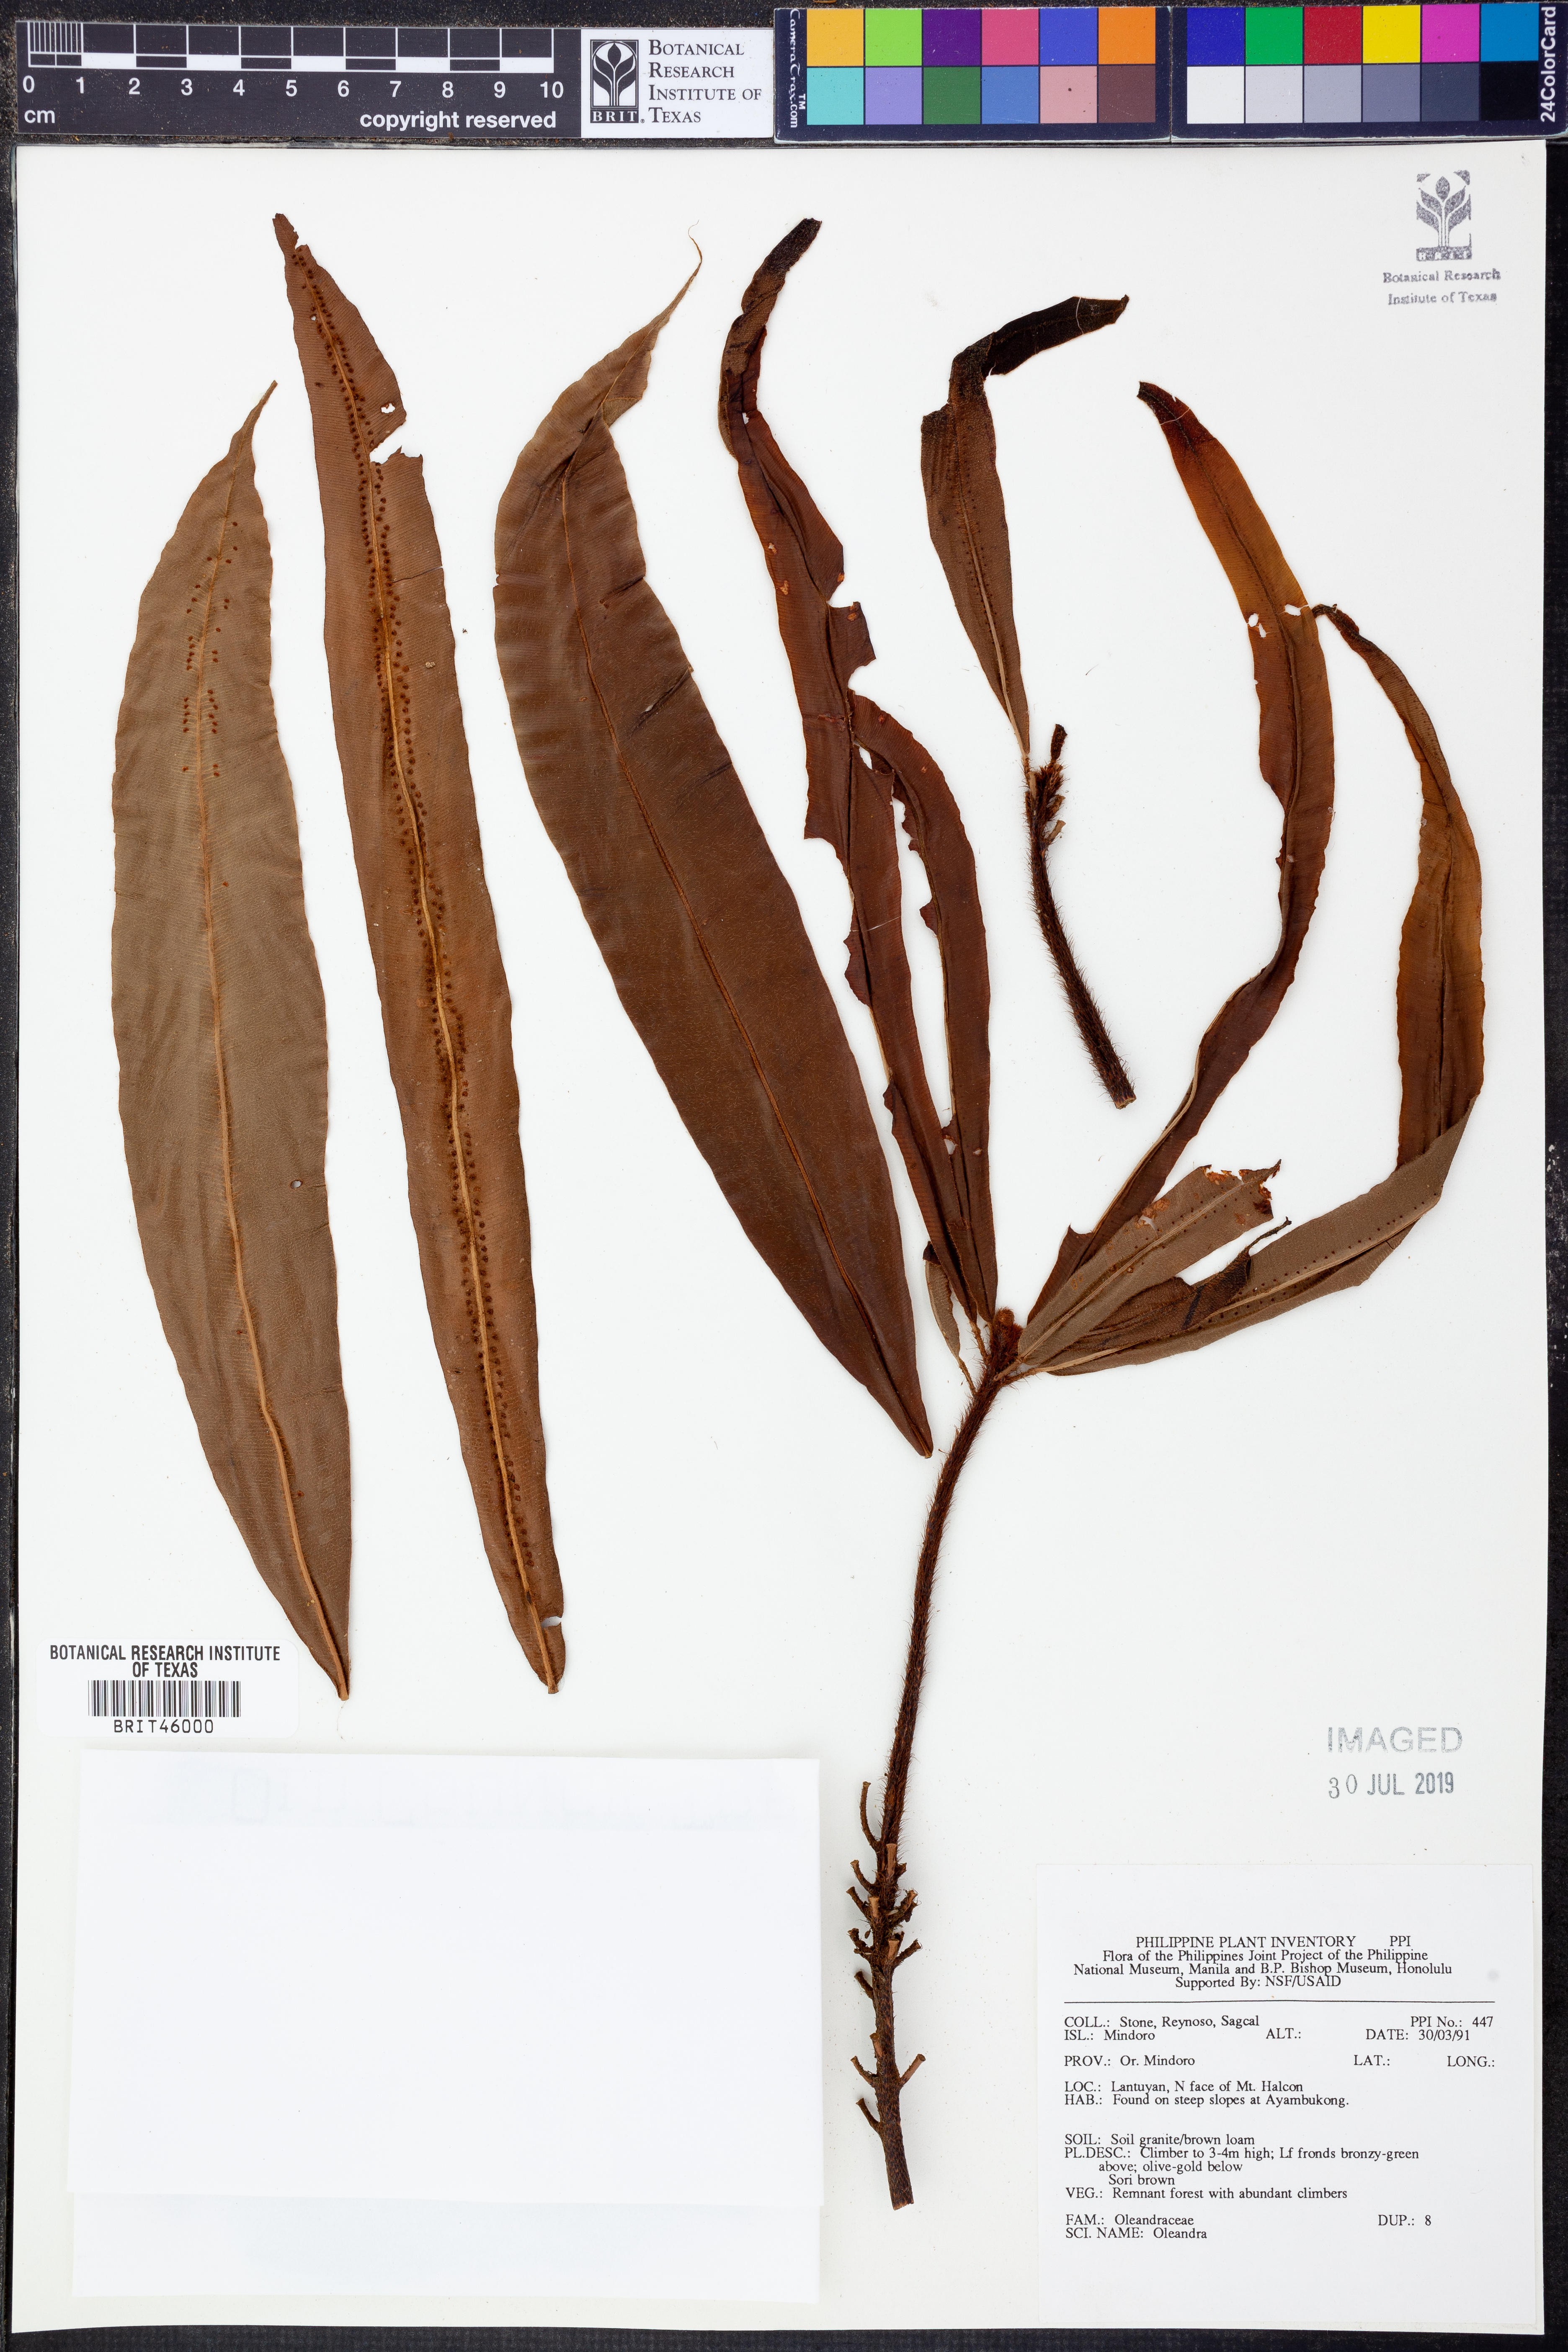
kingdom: Plantae
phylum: Tracheophyta
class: Polypodiopsida
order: Polypodiales
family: Oleandraceae
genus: Oleandra
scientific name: Oleandra
